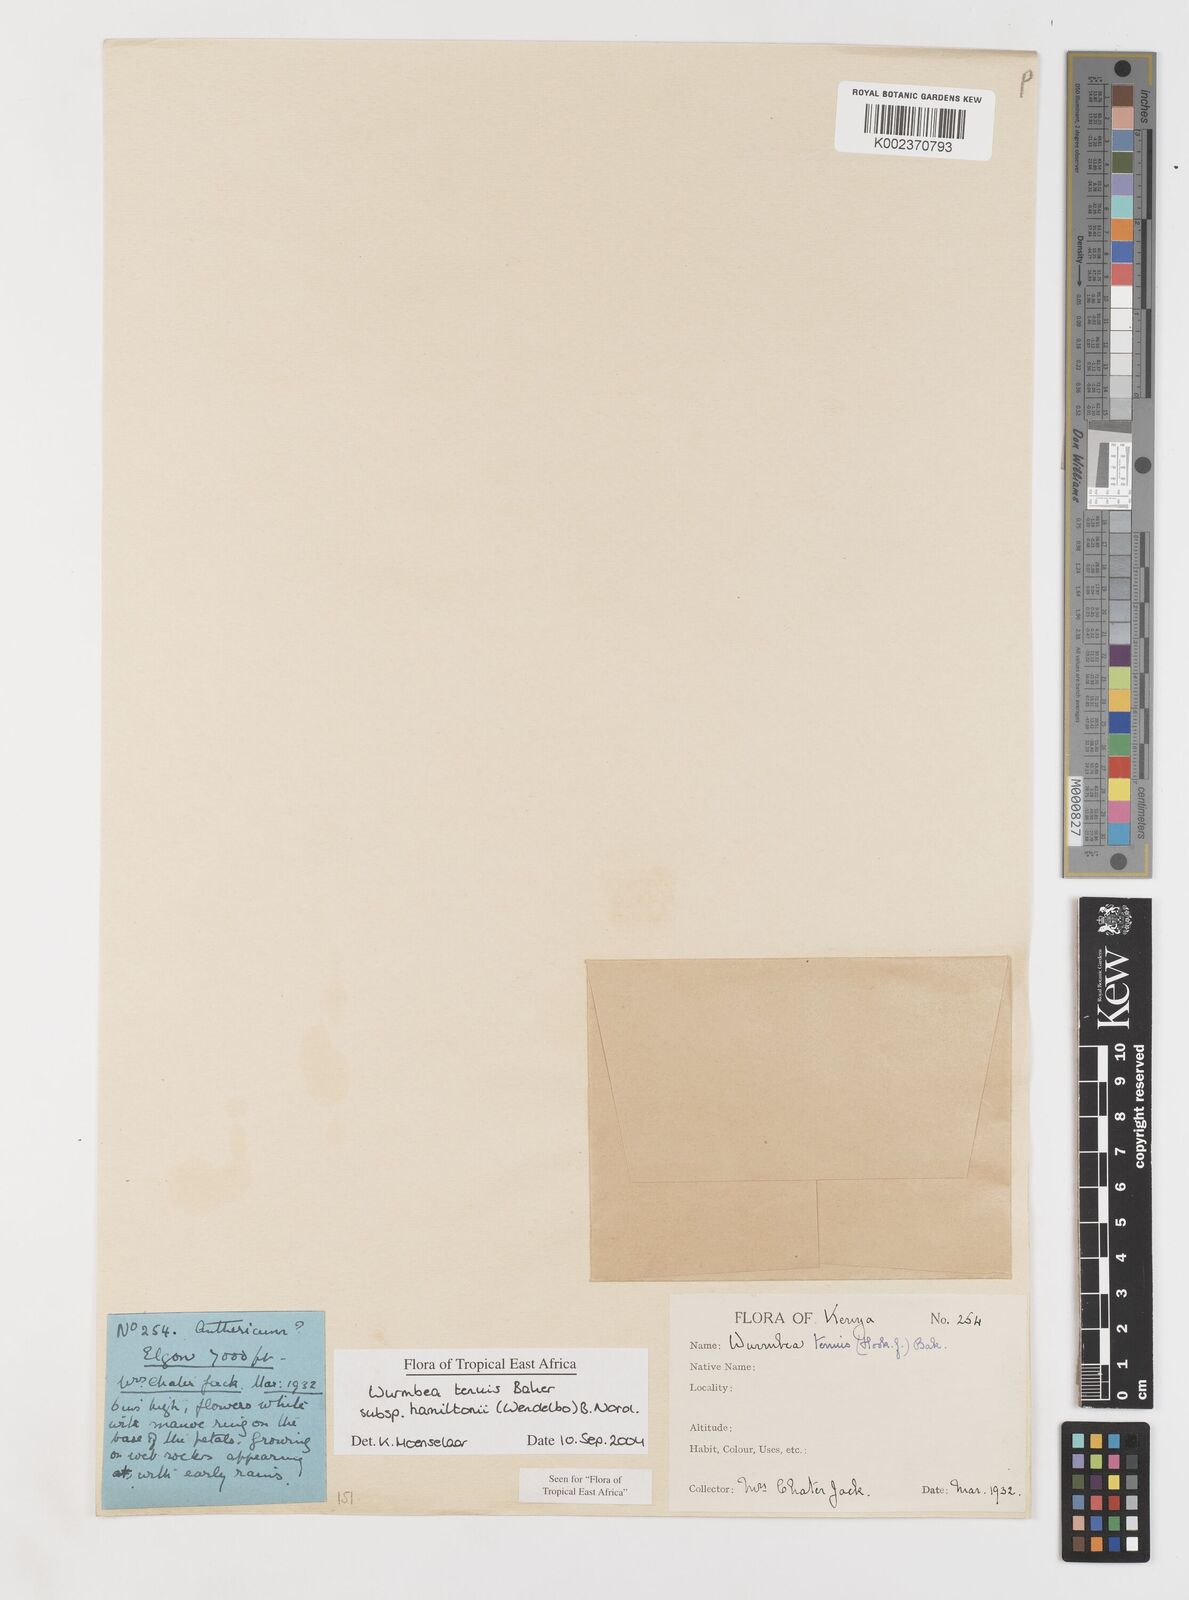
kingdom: Plantae
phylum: Tracheophyta
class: Liliopsida
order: Liliales
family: Colchicaceae
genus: Wurmbea
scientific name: Wurmbea tenuis
